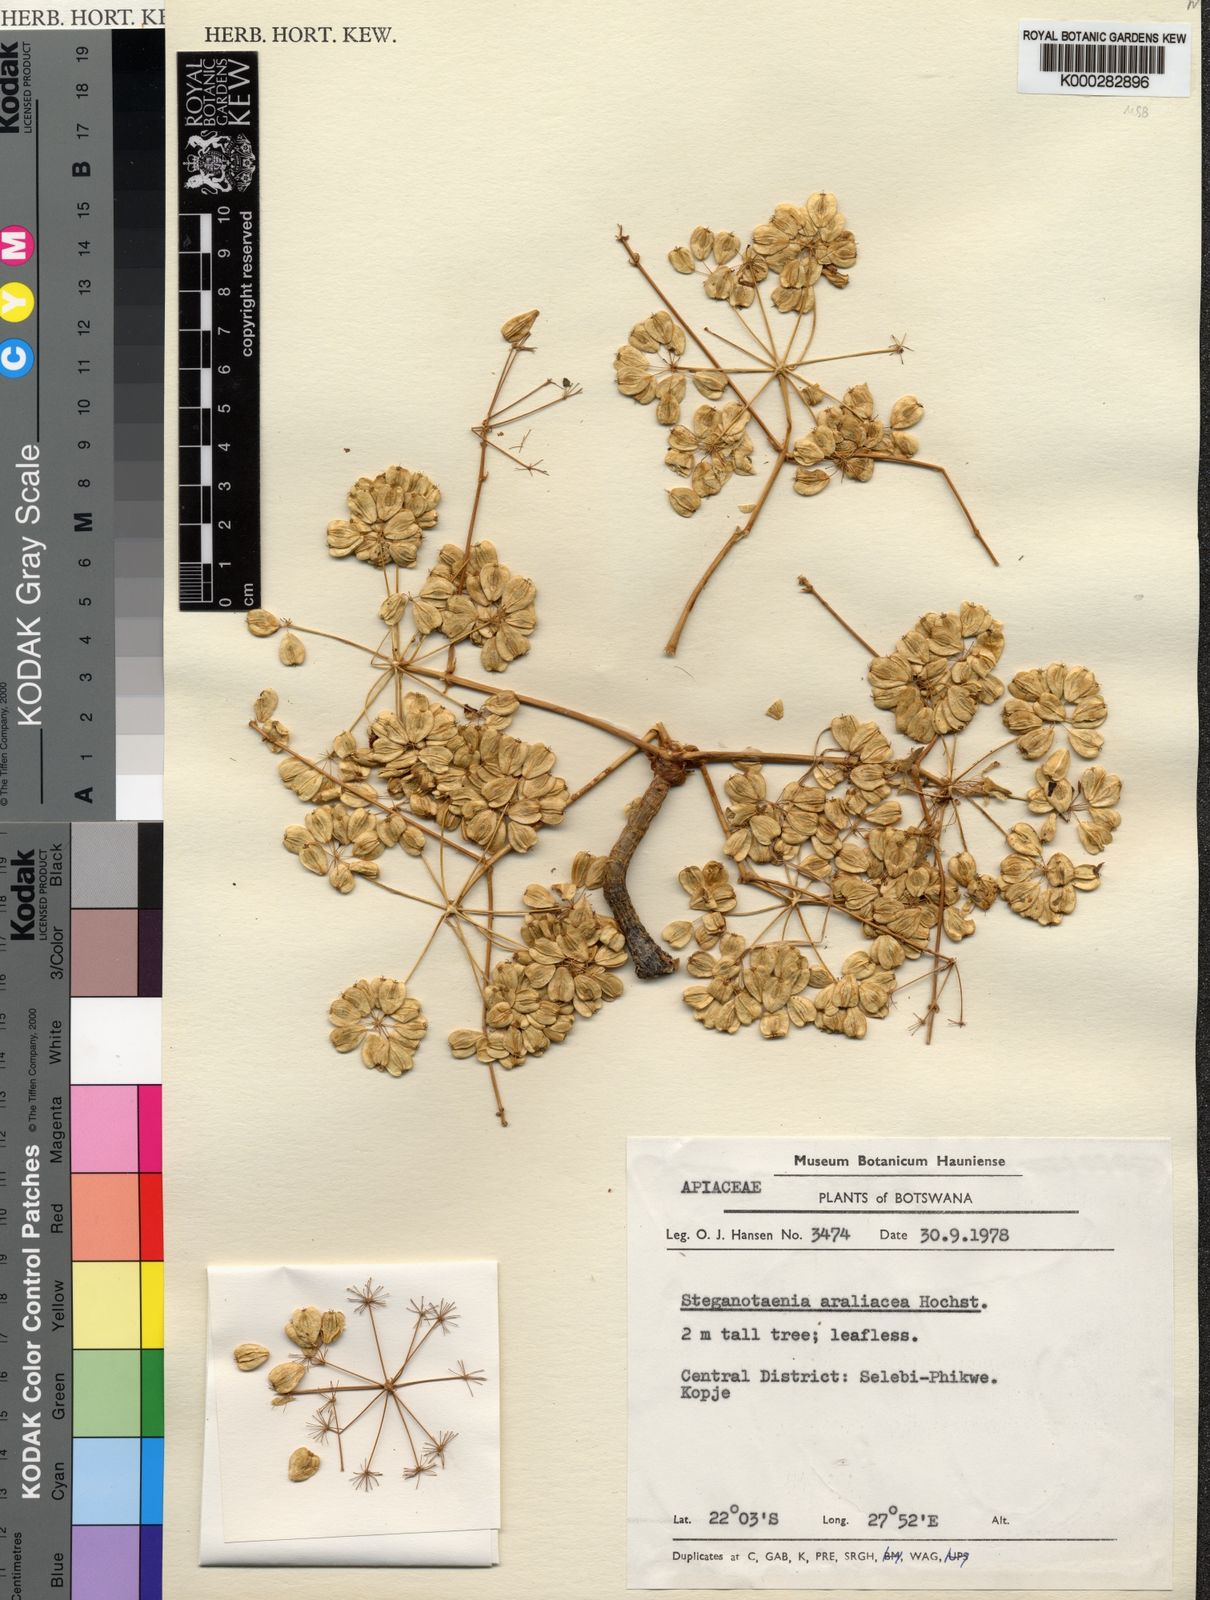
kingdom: Plantae
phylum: Tracheophyta
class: Magnoliopsida
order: Apiales
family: Apiaceae
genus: Steganotaenia
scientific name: Steganotaenia araliacea
